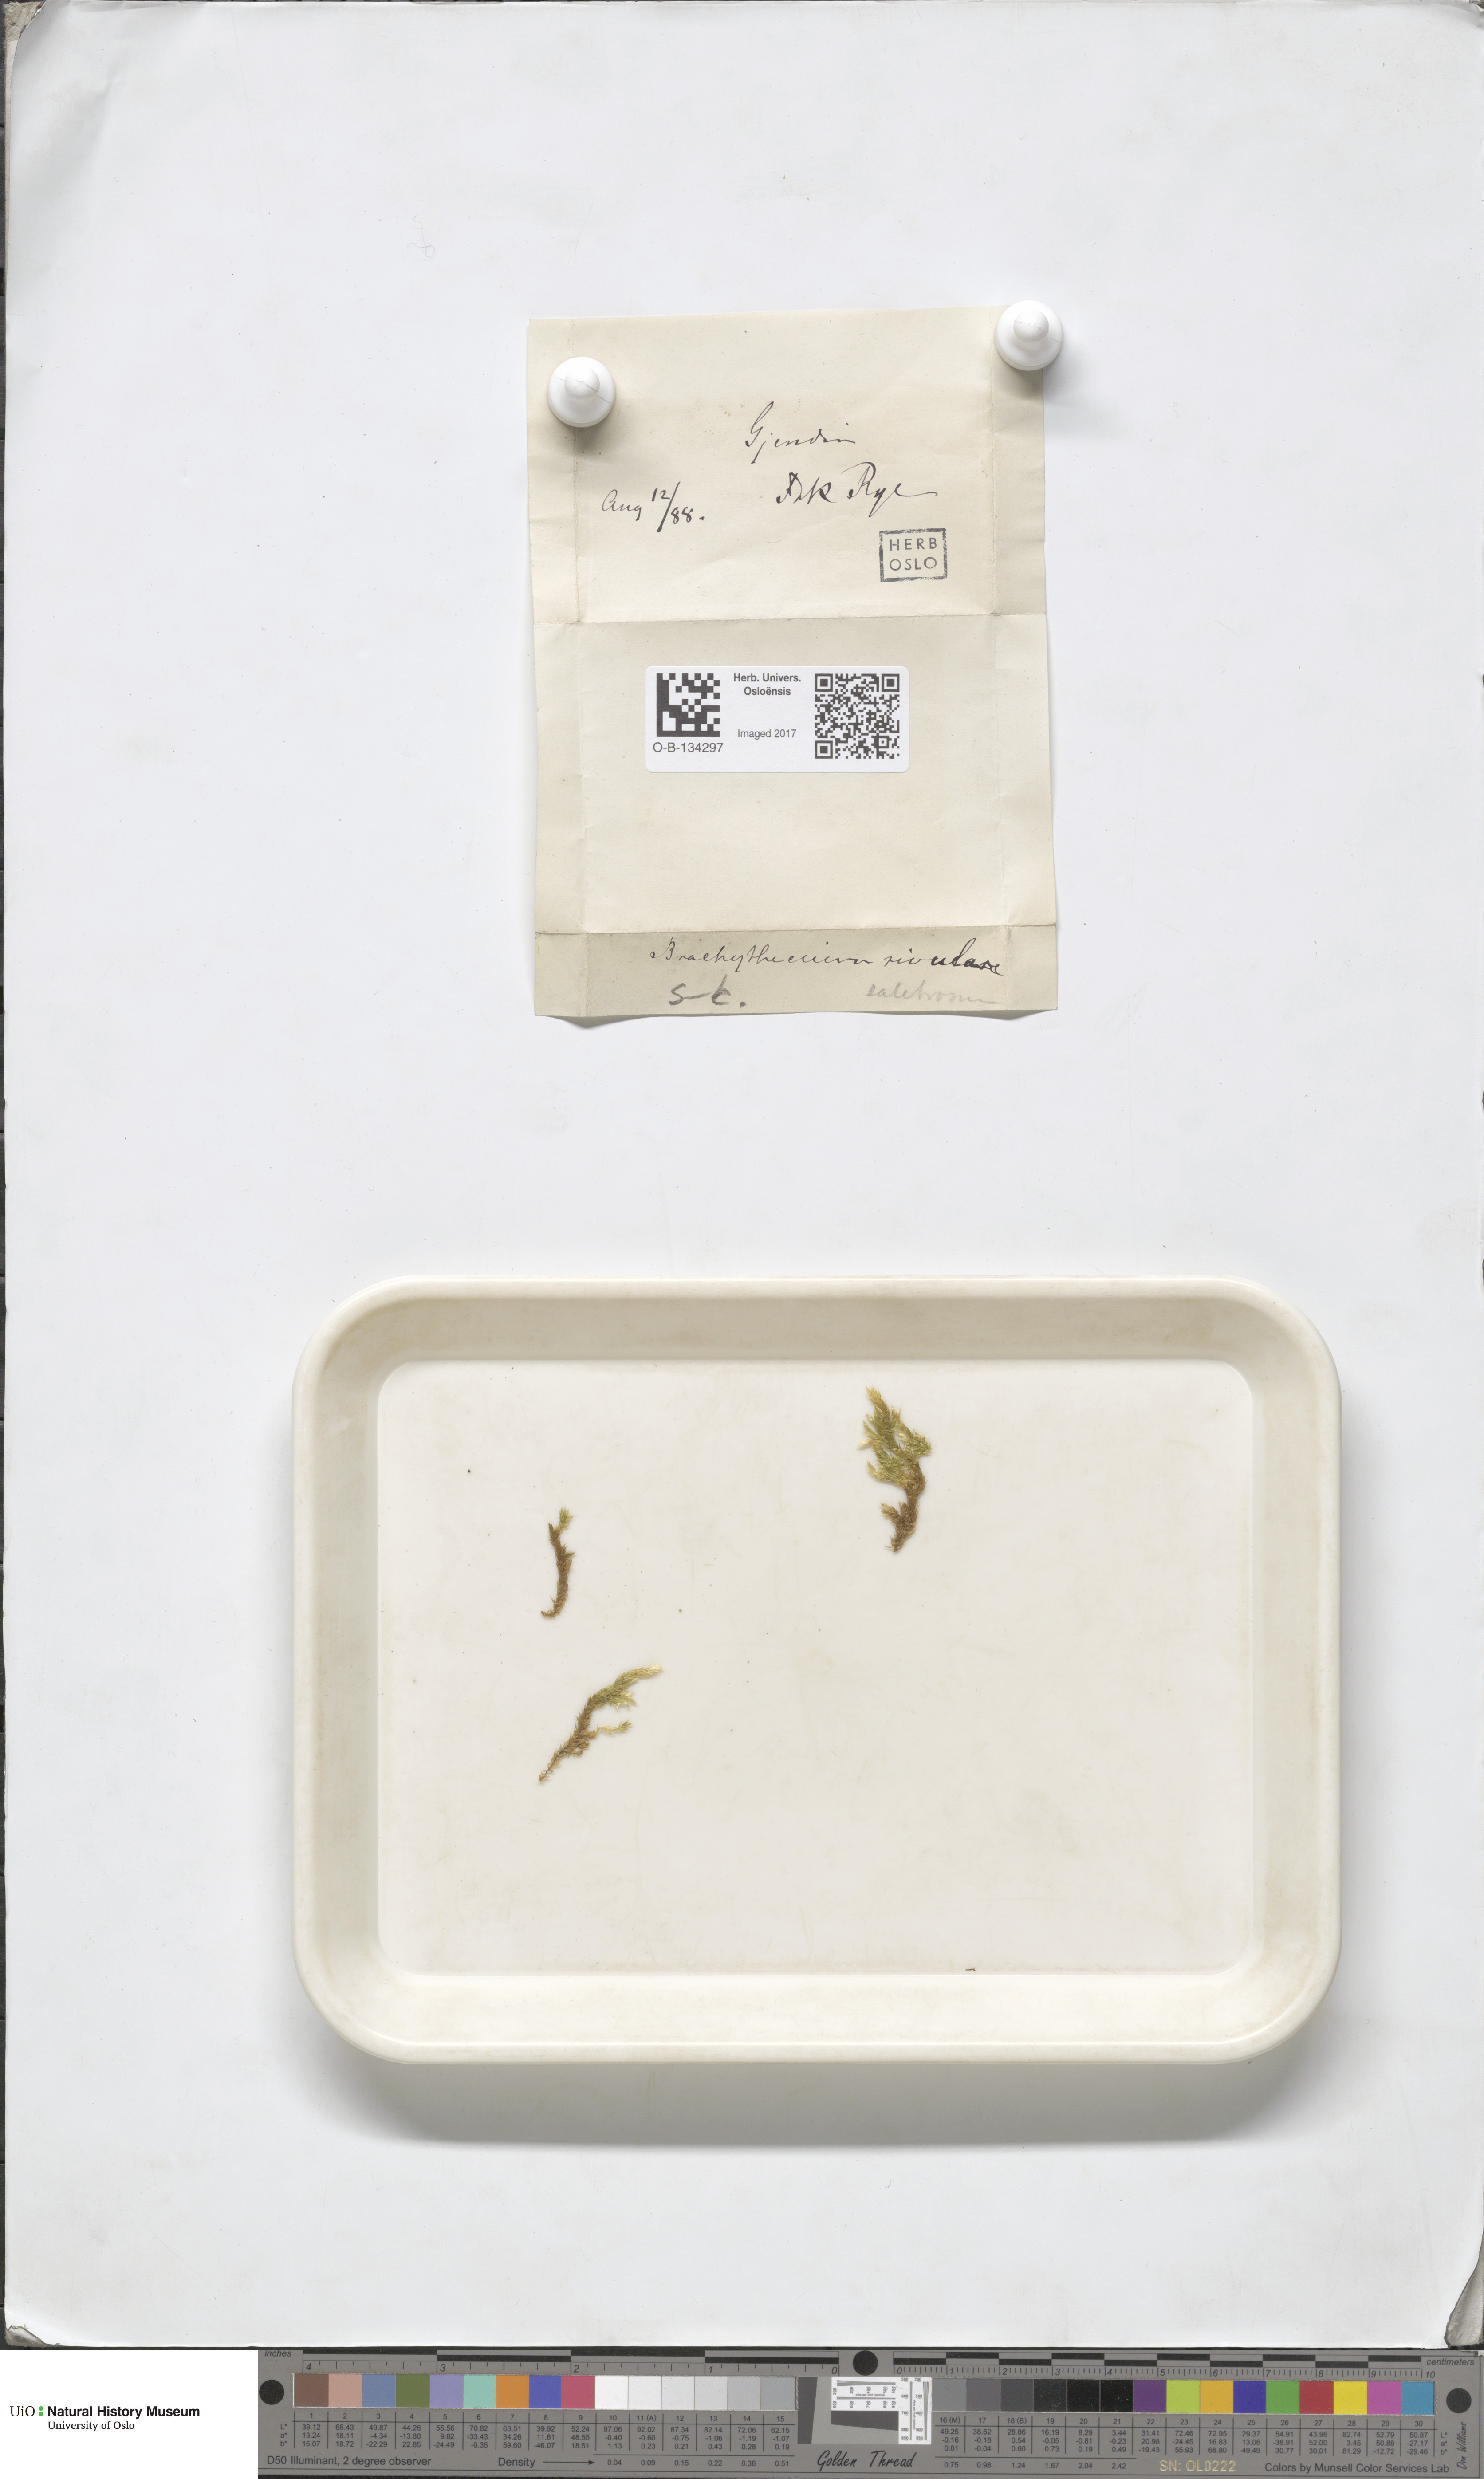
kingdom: Plantae
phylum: Bryophyta
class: Bryopsida
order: Hypnales
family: Brachytheciaceae
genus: Brachythecium
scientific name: Brachythecium rivulare
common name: River ragged moss
